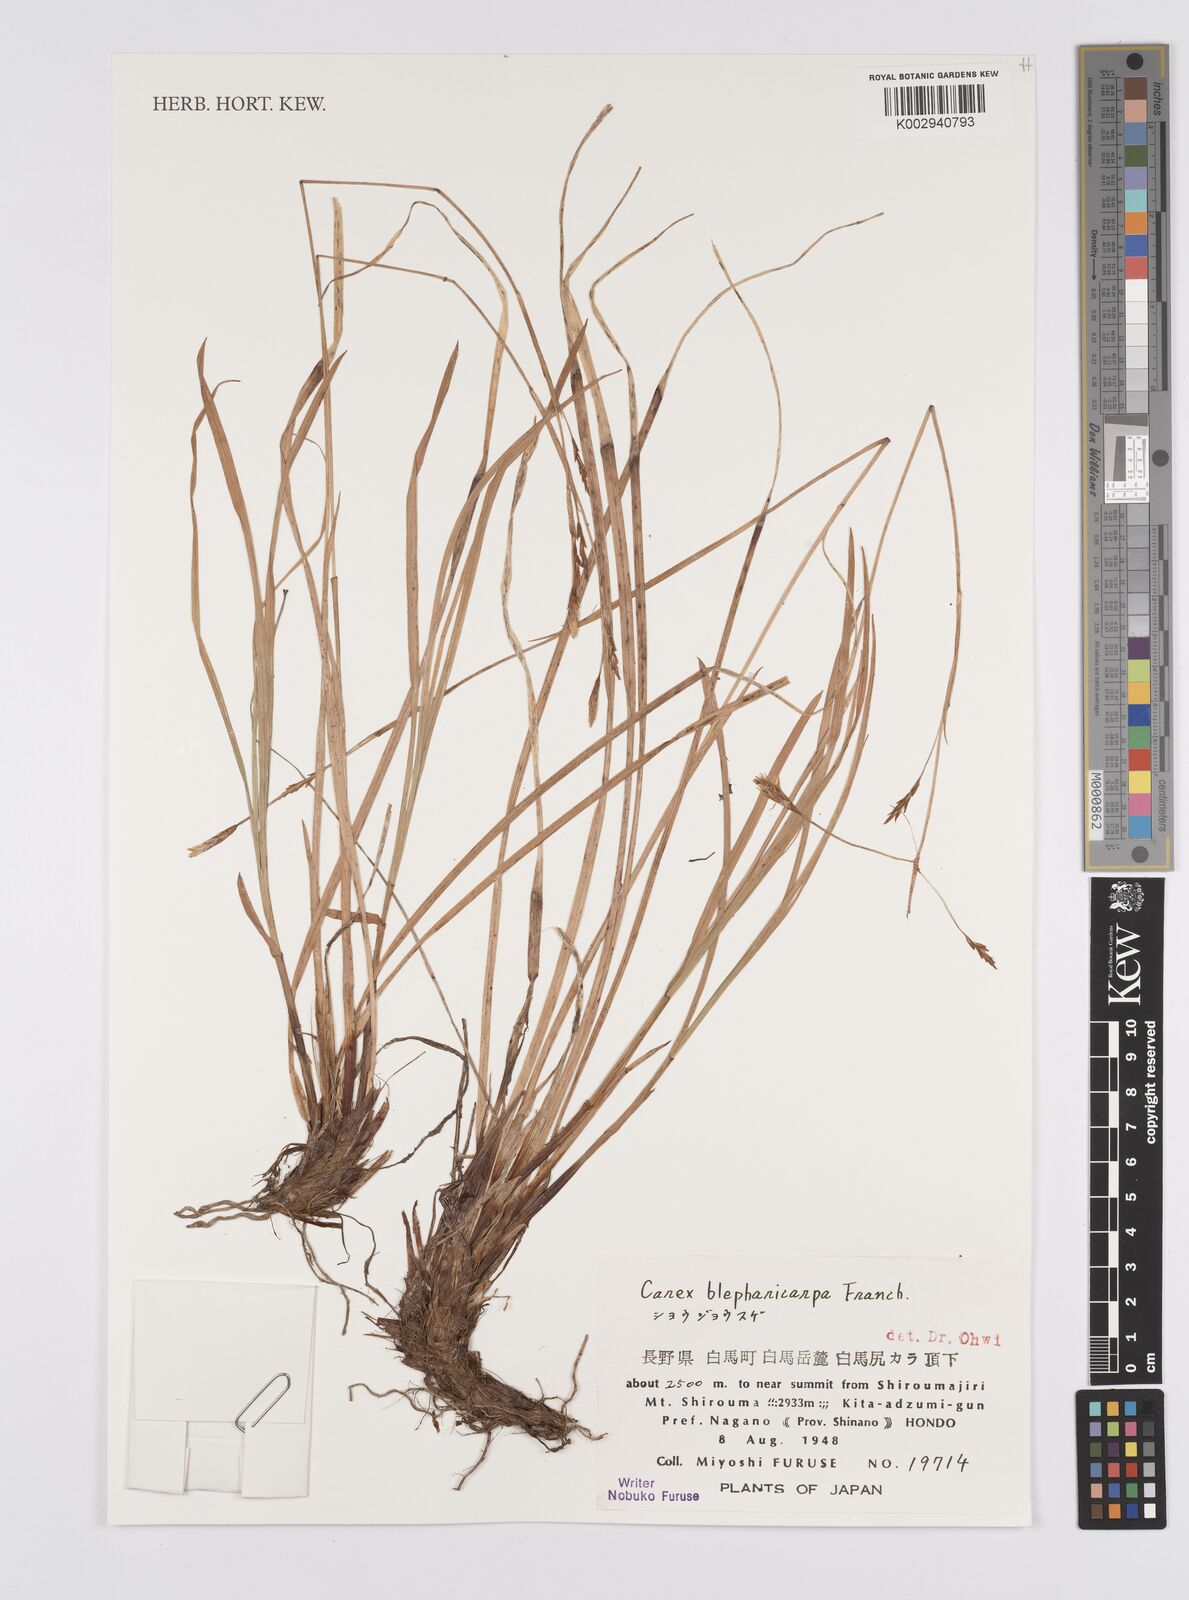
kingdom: Plantae
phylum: Tracheophyta
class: Liliopsida
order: Poales
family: Cyperaceae
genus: Carex
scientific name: Carex blepharicarpa
